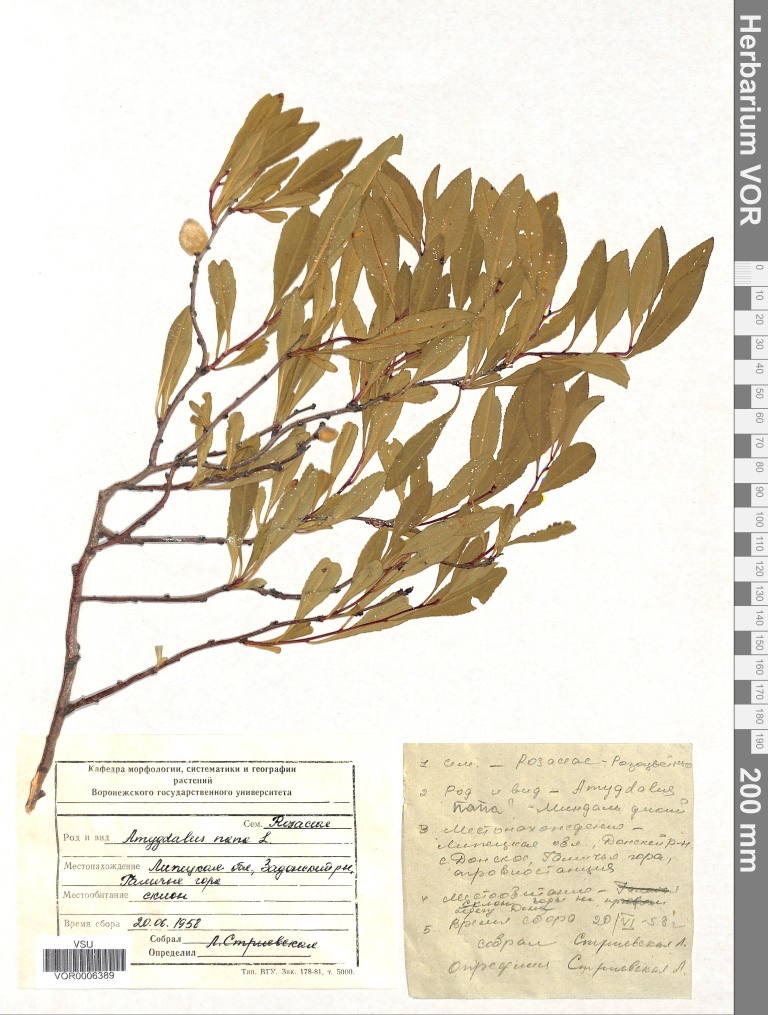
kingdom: Plantae
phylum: Tracheophyta
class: Magnoliopsida
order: Rosales
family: Rosaceae
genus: Prunus
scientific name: Prunus tenella
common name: Dwarf russian almond
